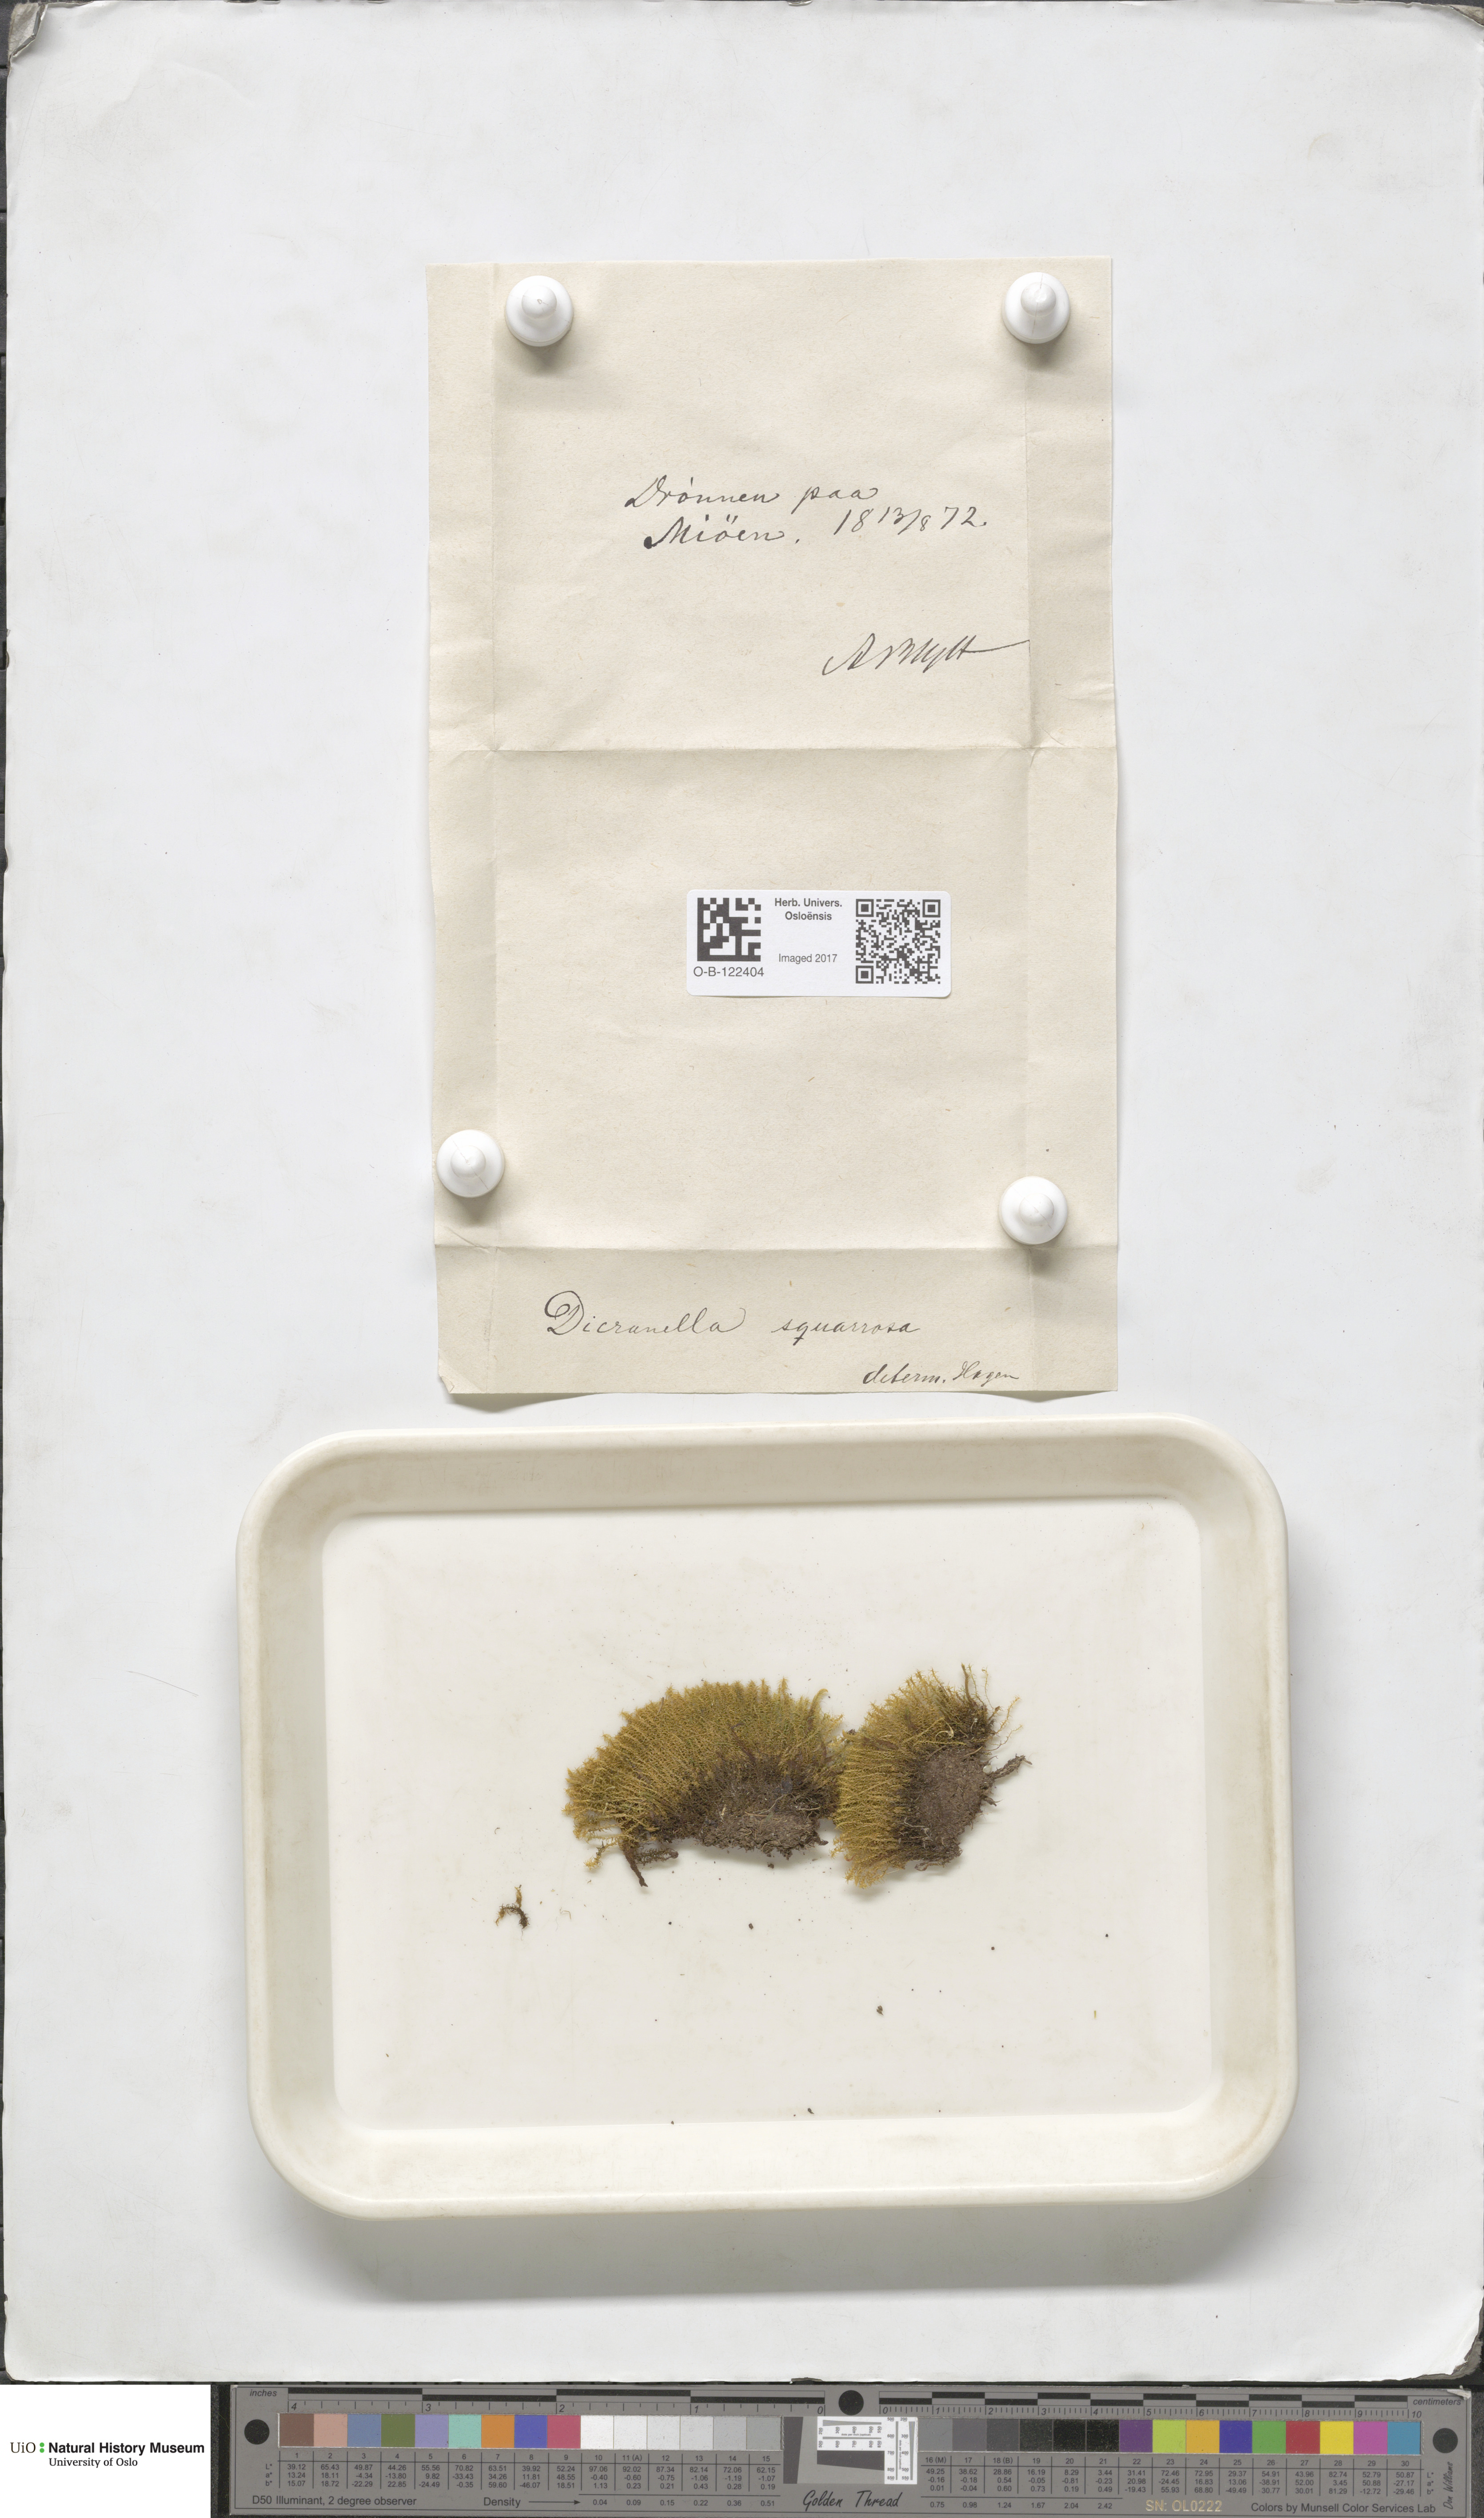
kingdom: Plantae
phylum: Bryophyta
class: Bryopsida
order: Dicranales
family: Aongstroemiaceae
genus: Diobelonella
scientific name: Diobelonella palustris
